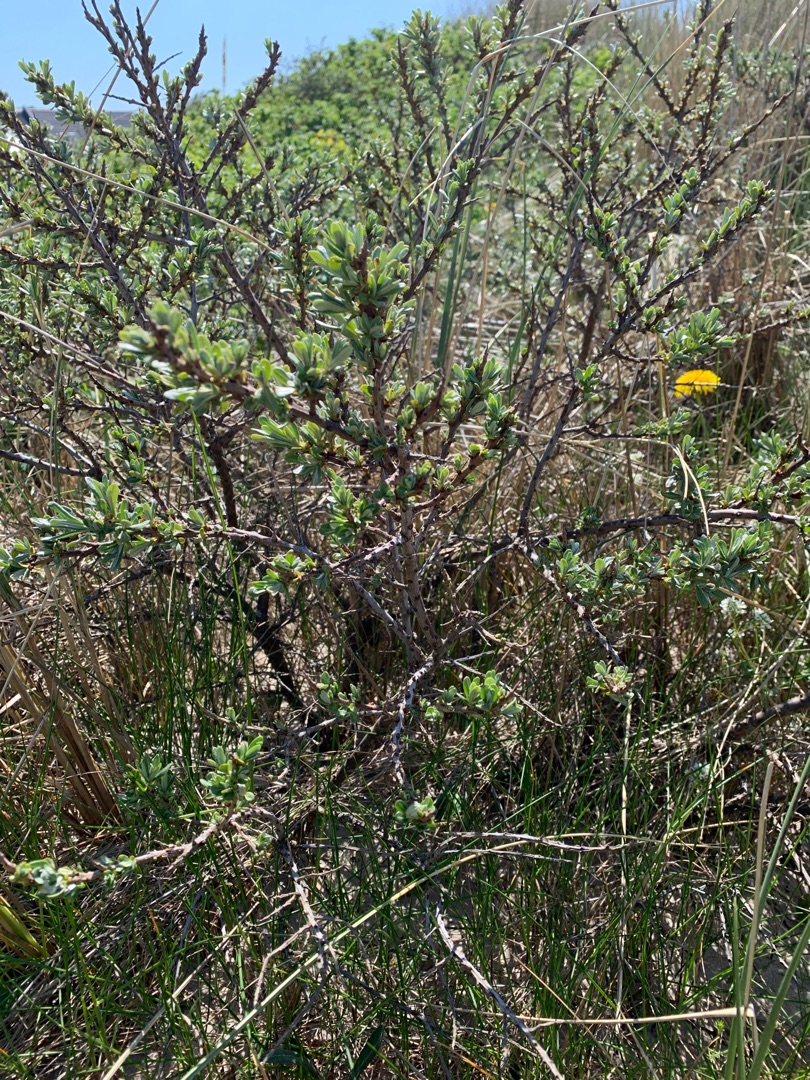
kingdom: Plantae
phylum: Tracheophyta
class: Magnoliopsida
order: Rosales
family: Elaeagnaceae
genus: Hippophae
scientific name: Hippophae rhamnoides
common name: Havtorn
